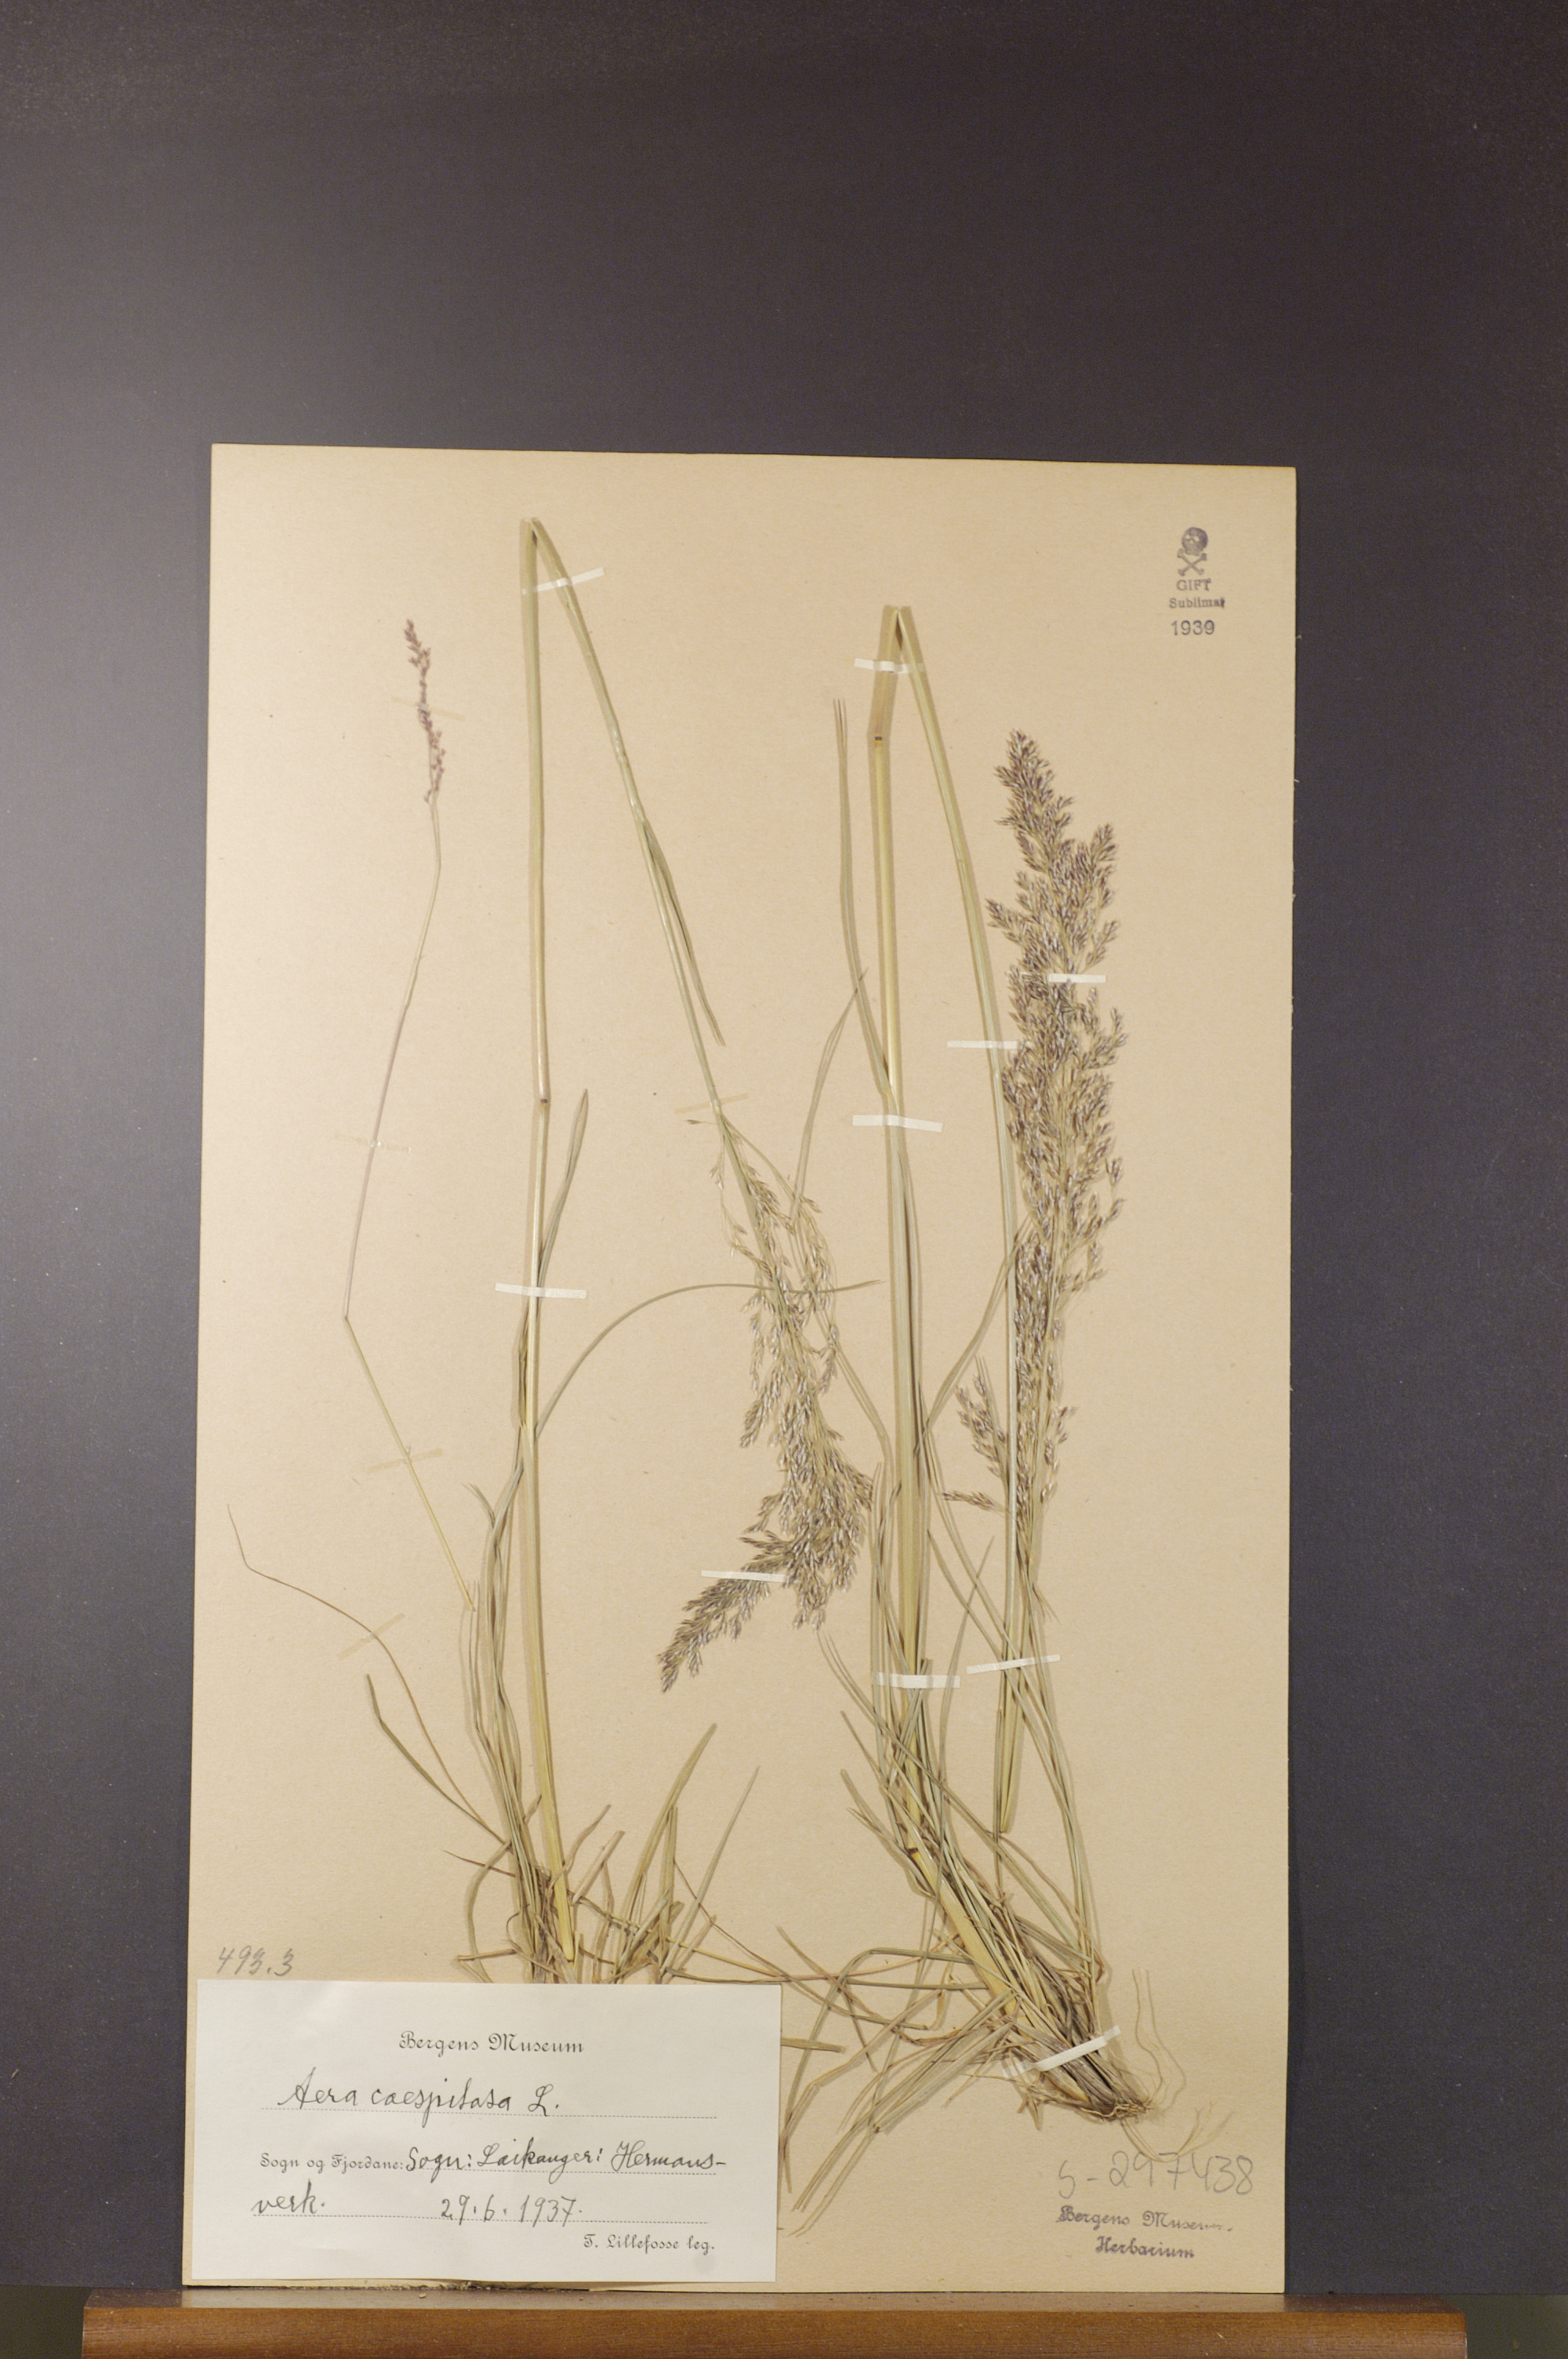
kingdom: Plantae
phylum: Tracheophyta
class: Liliopsida
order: Poales
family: Poaceae
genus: Deschampsia
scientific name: Deschampsia cespitosa
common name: Tufted hair-grass
